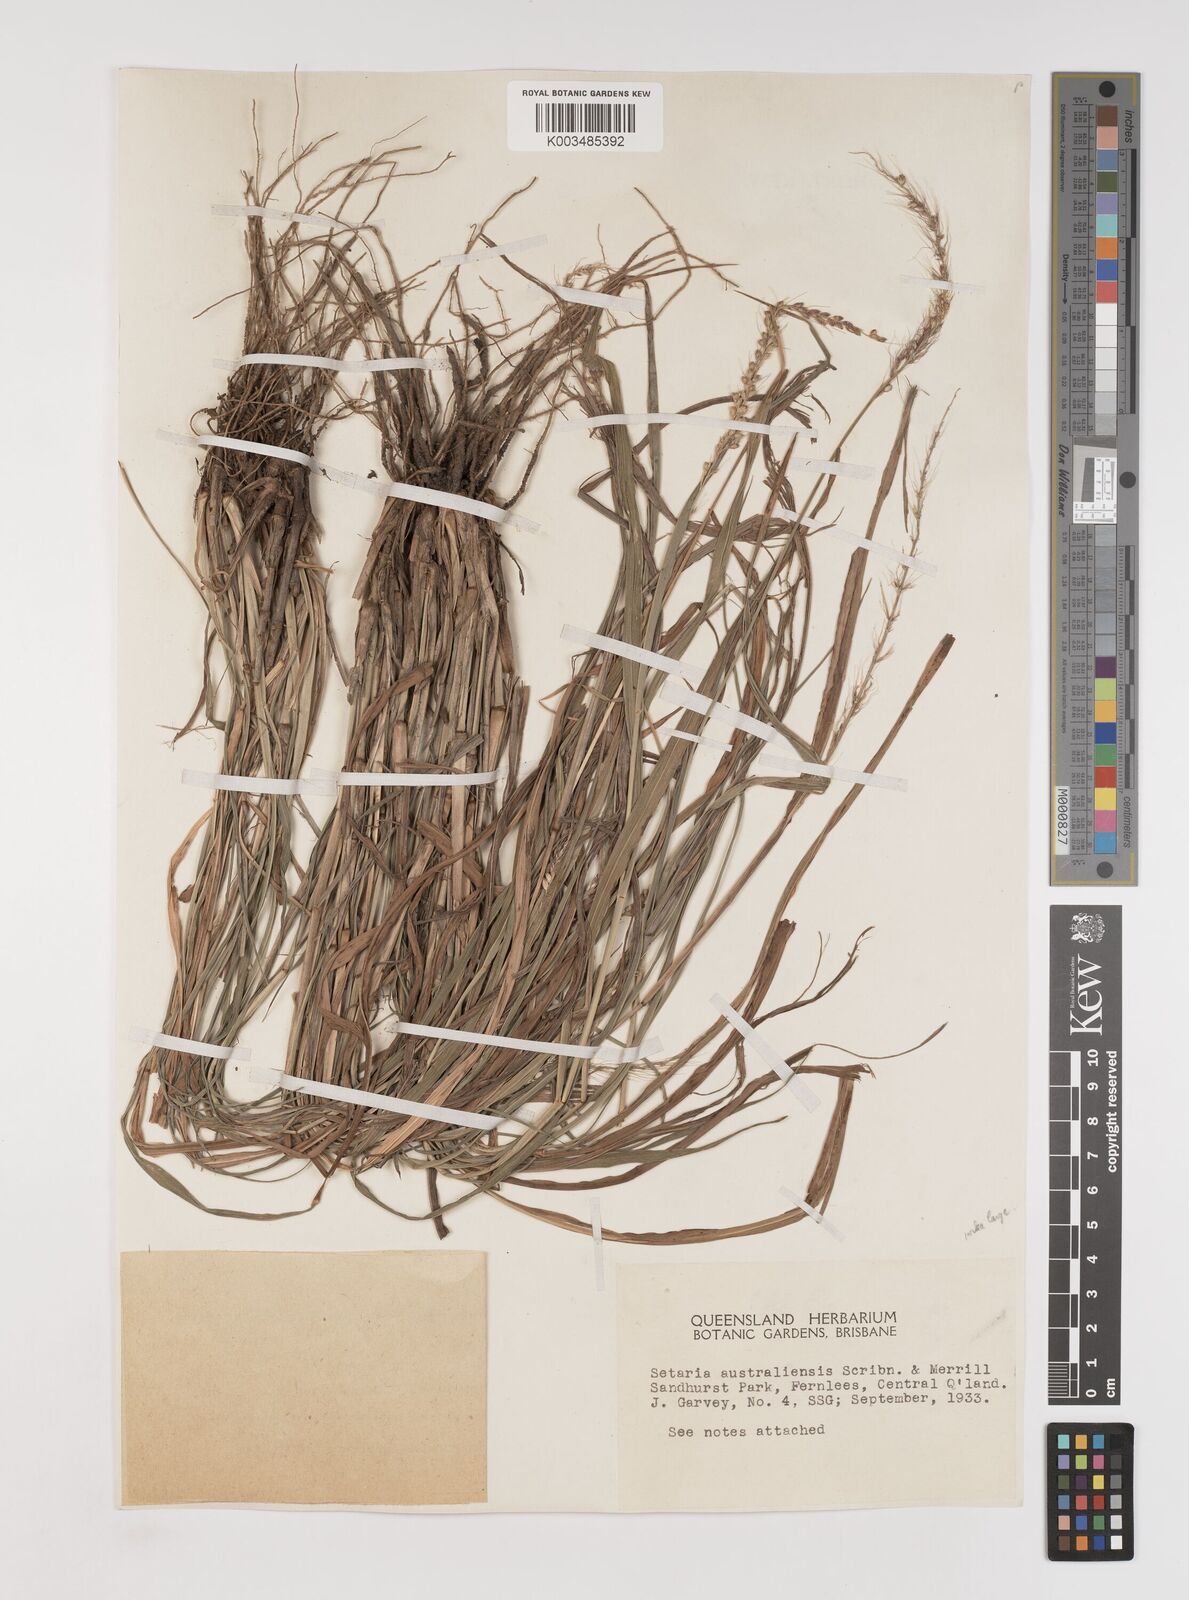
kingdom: Plantae
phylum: Tracheophyta
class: Liliopsida
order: Poales
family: Poaceae
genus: Setaria
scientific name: Setaria oplismenoides
